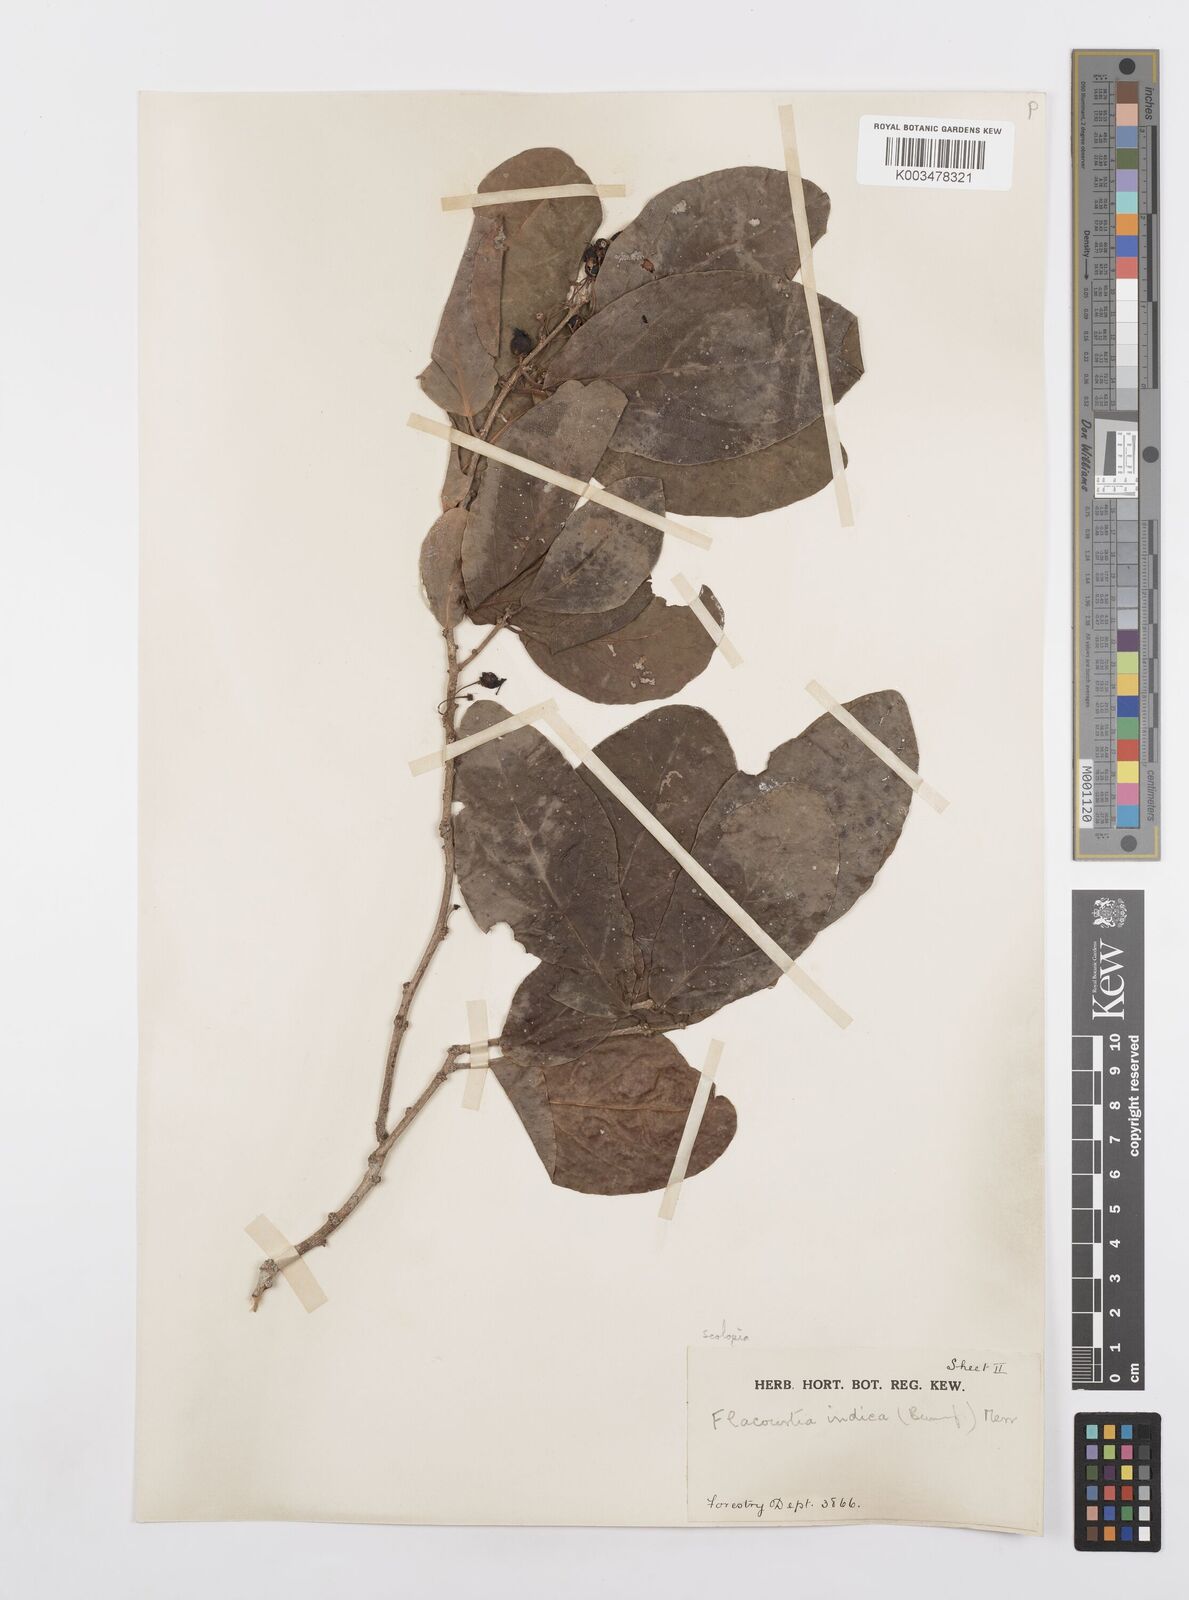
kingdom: Plantae
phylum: Tracheophyta
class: Magnoliopsida
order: Malpighiales
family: Salicaceae
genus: Scolopia
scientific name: Scolopia rhamniphylla
